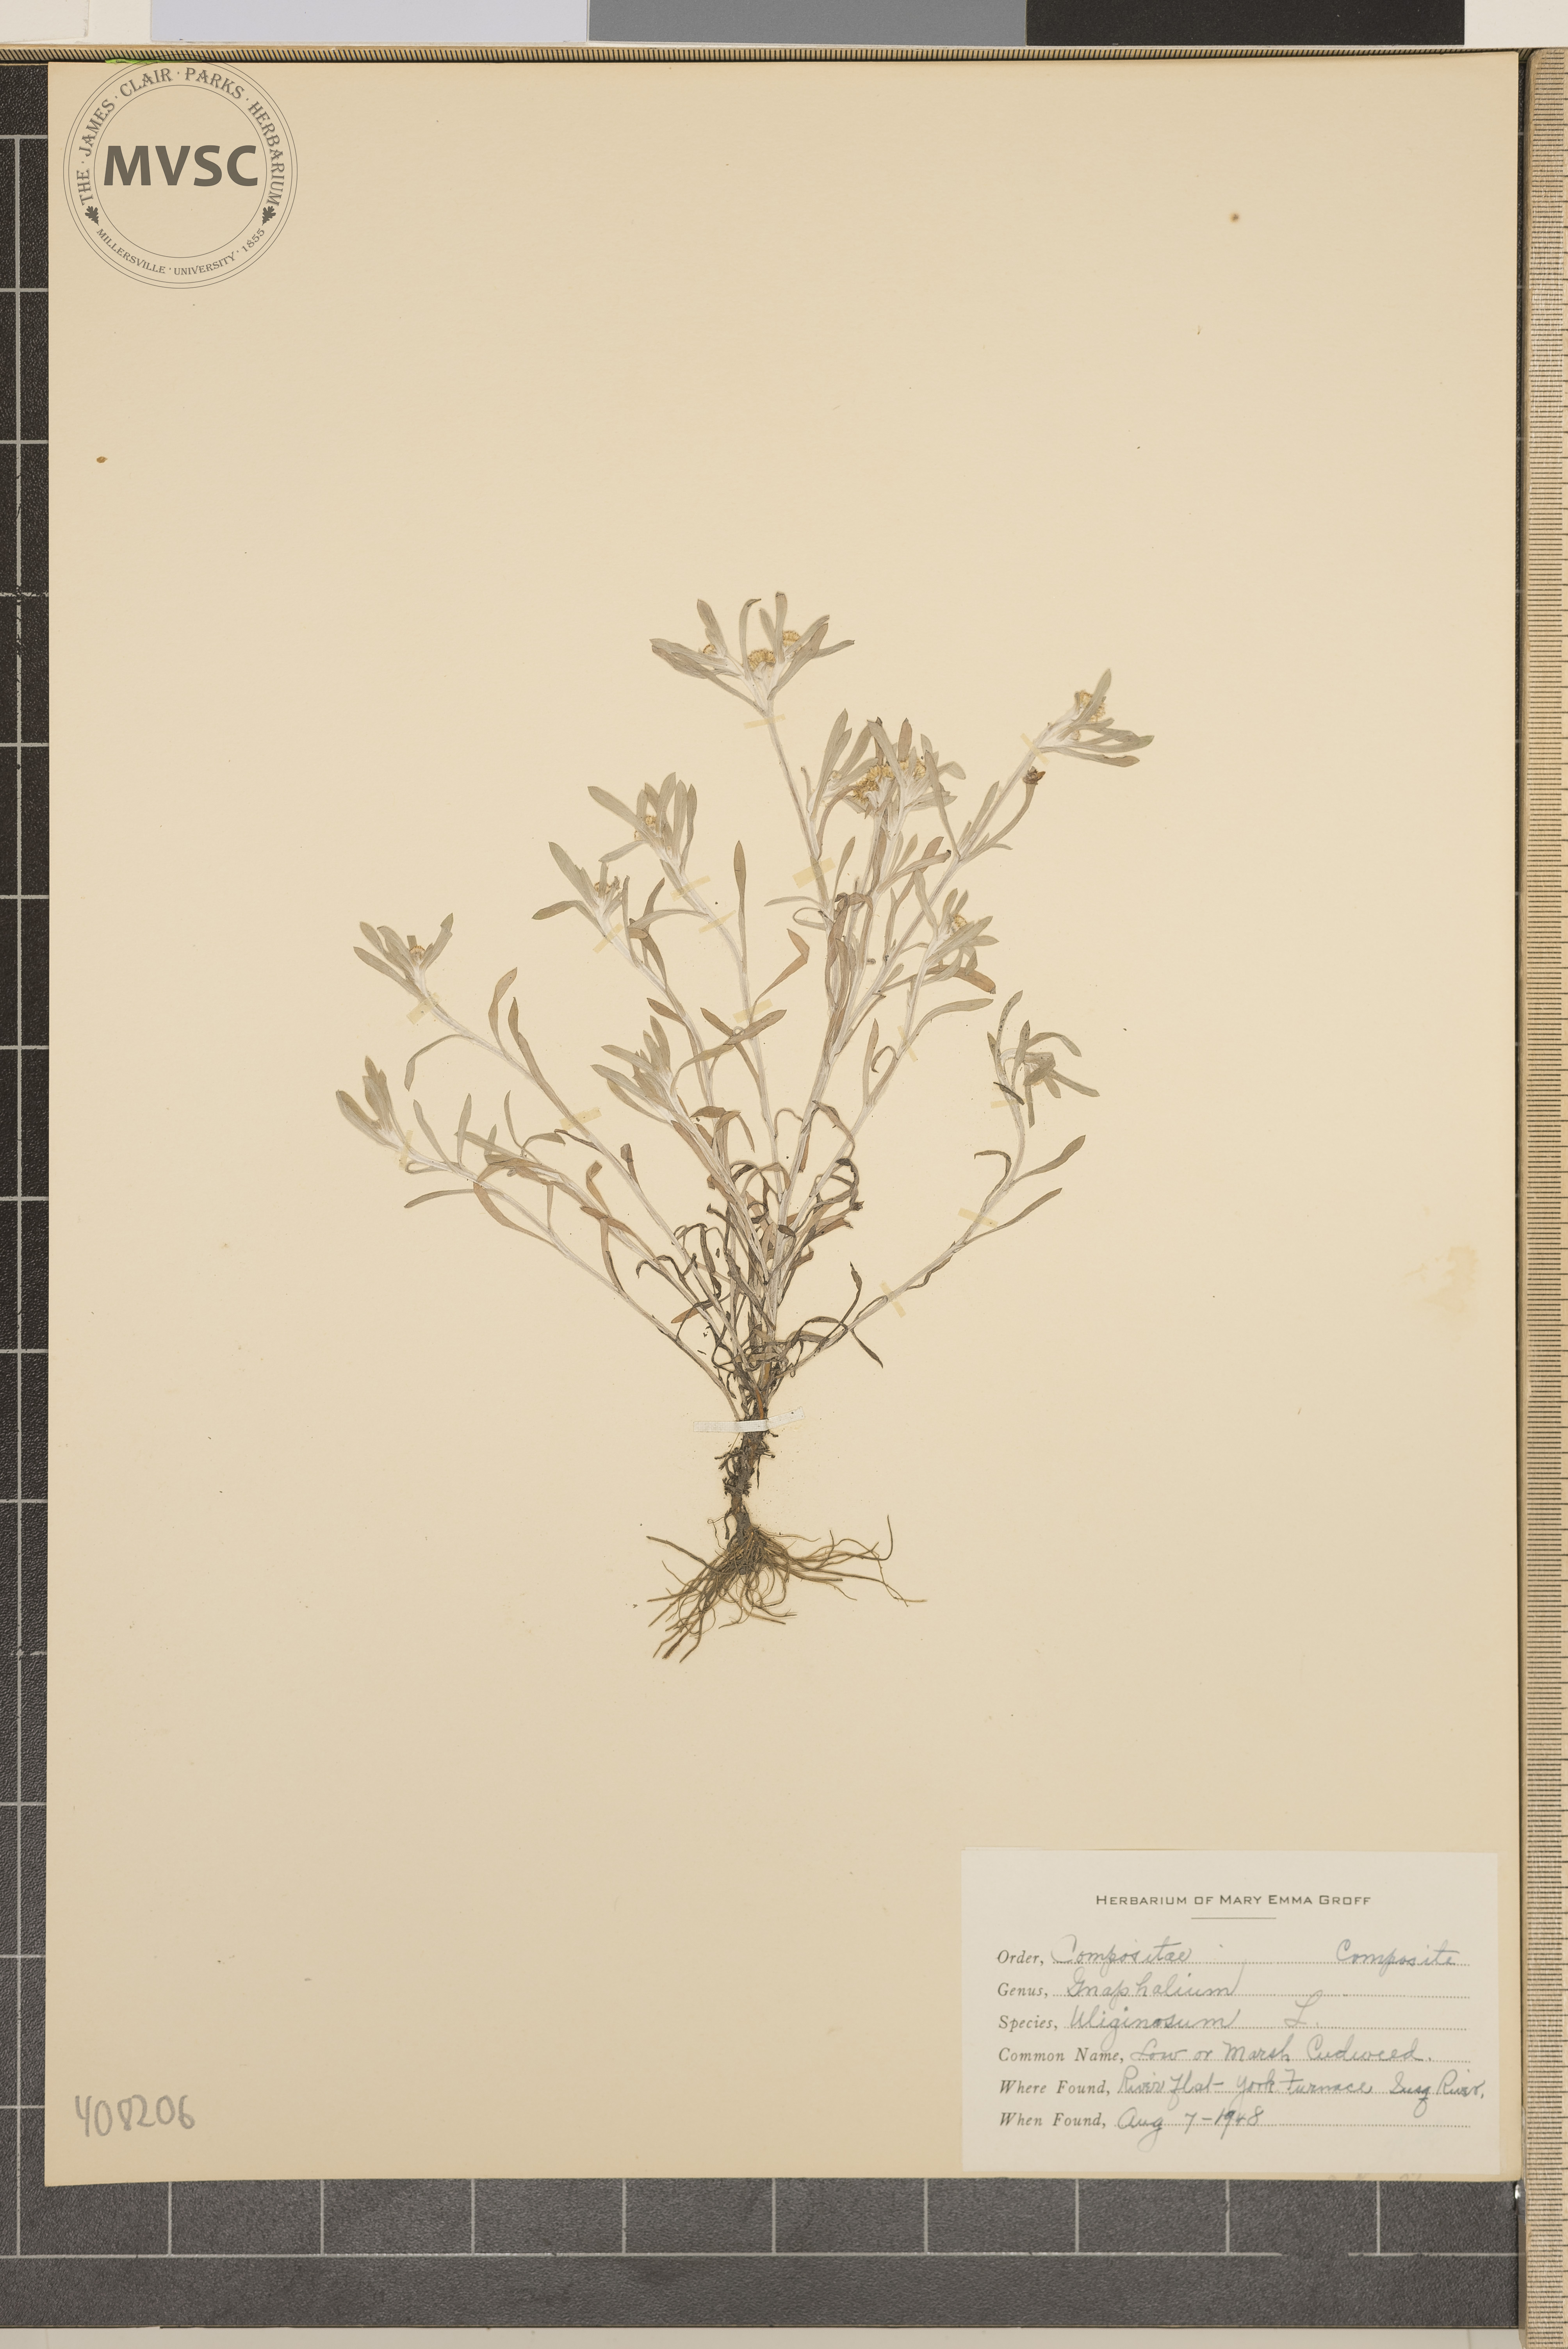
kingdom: Plantae
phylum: Tracheophyta
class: Magnoliopsida
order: Asterales
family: Asteraceae
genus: Gnaphalium
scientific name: Gnaphalium uliginosum
